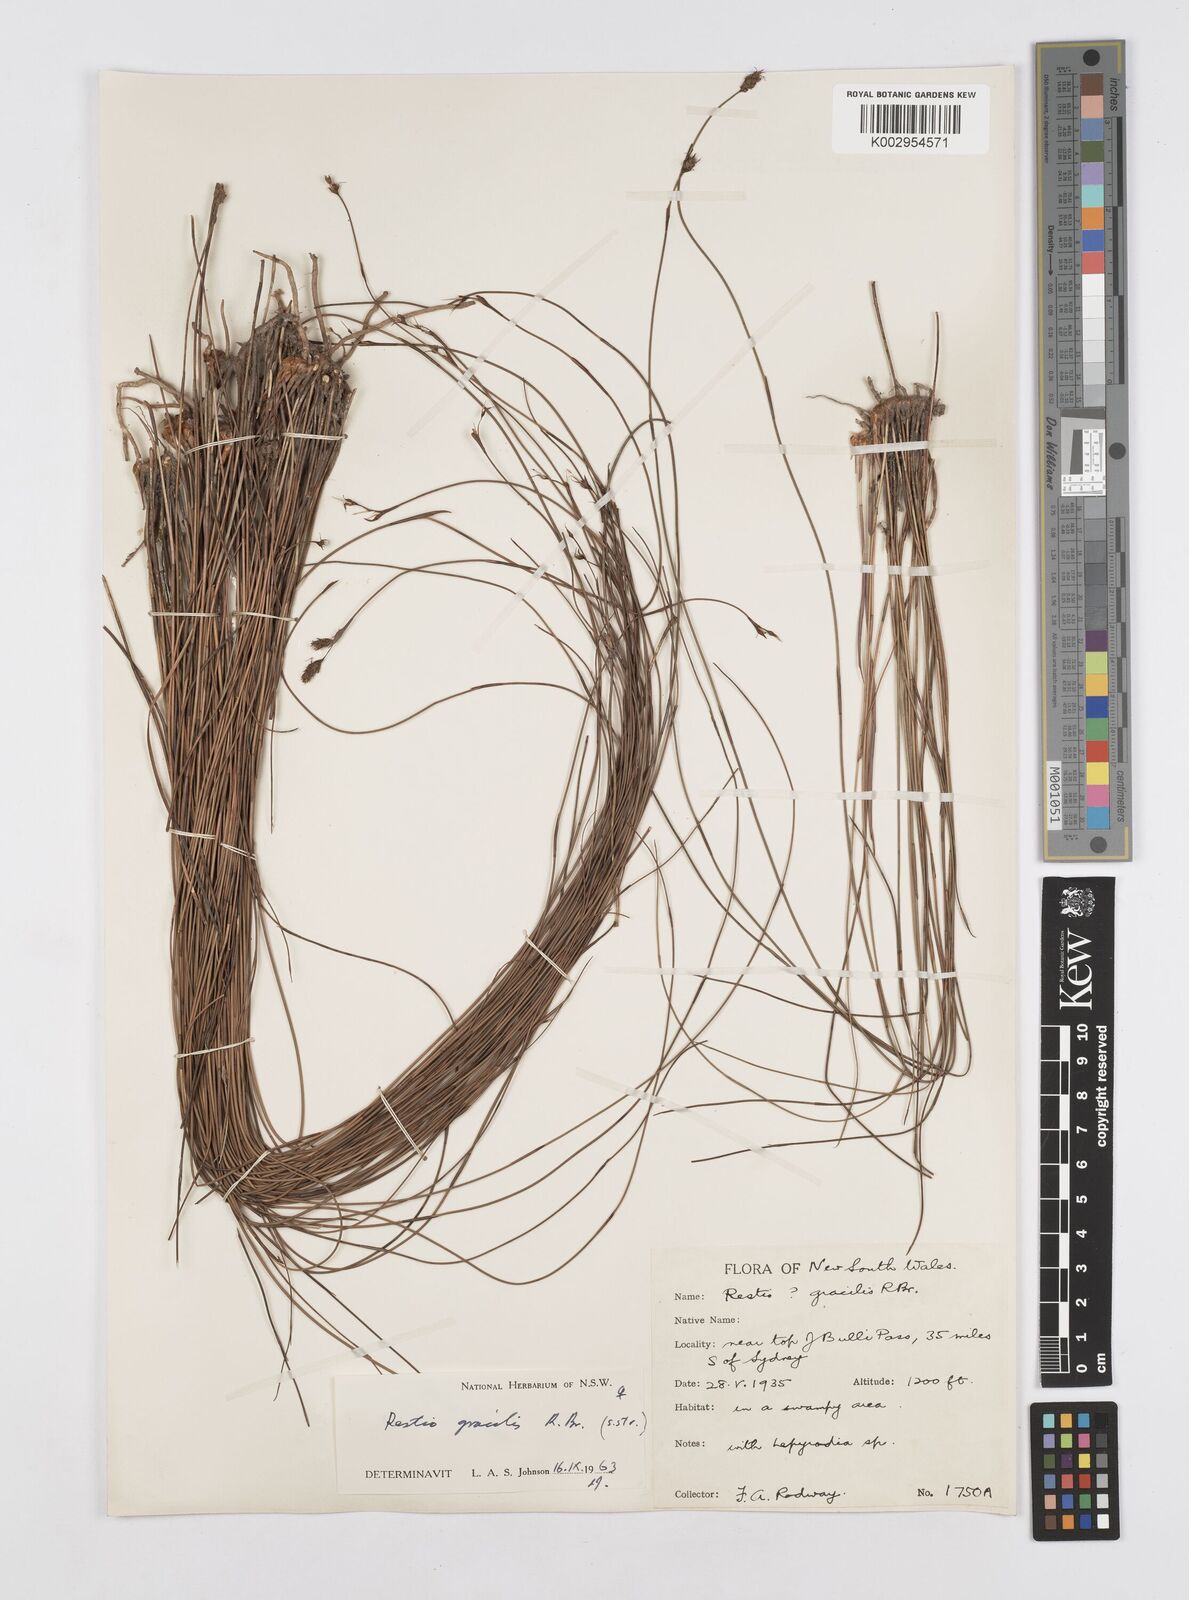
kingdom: Plantae
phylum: Tracheophyta
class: Liliopsida
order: Poales
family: Restionaceae
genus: Baloskion
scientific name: Baloskion gracile
